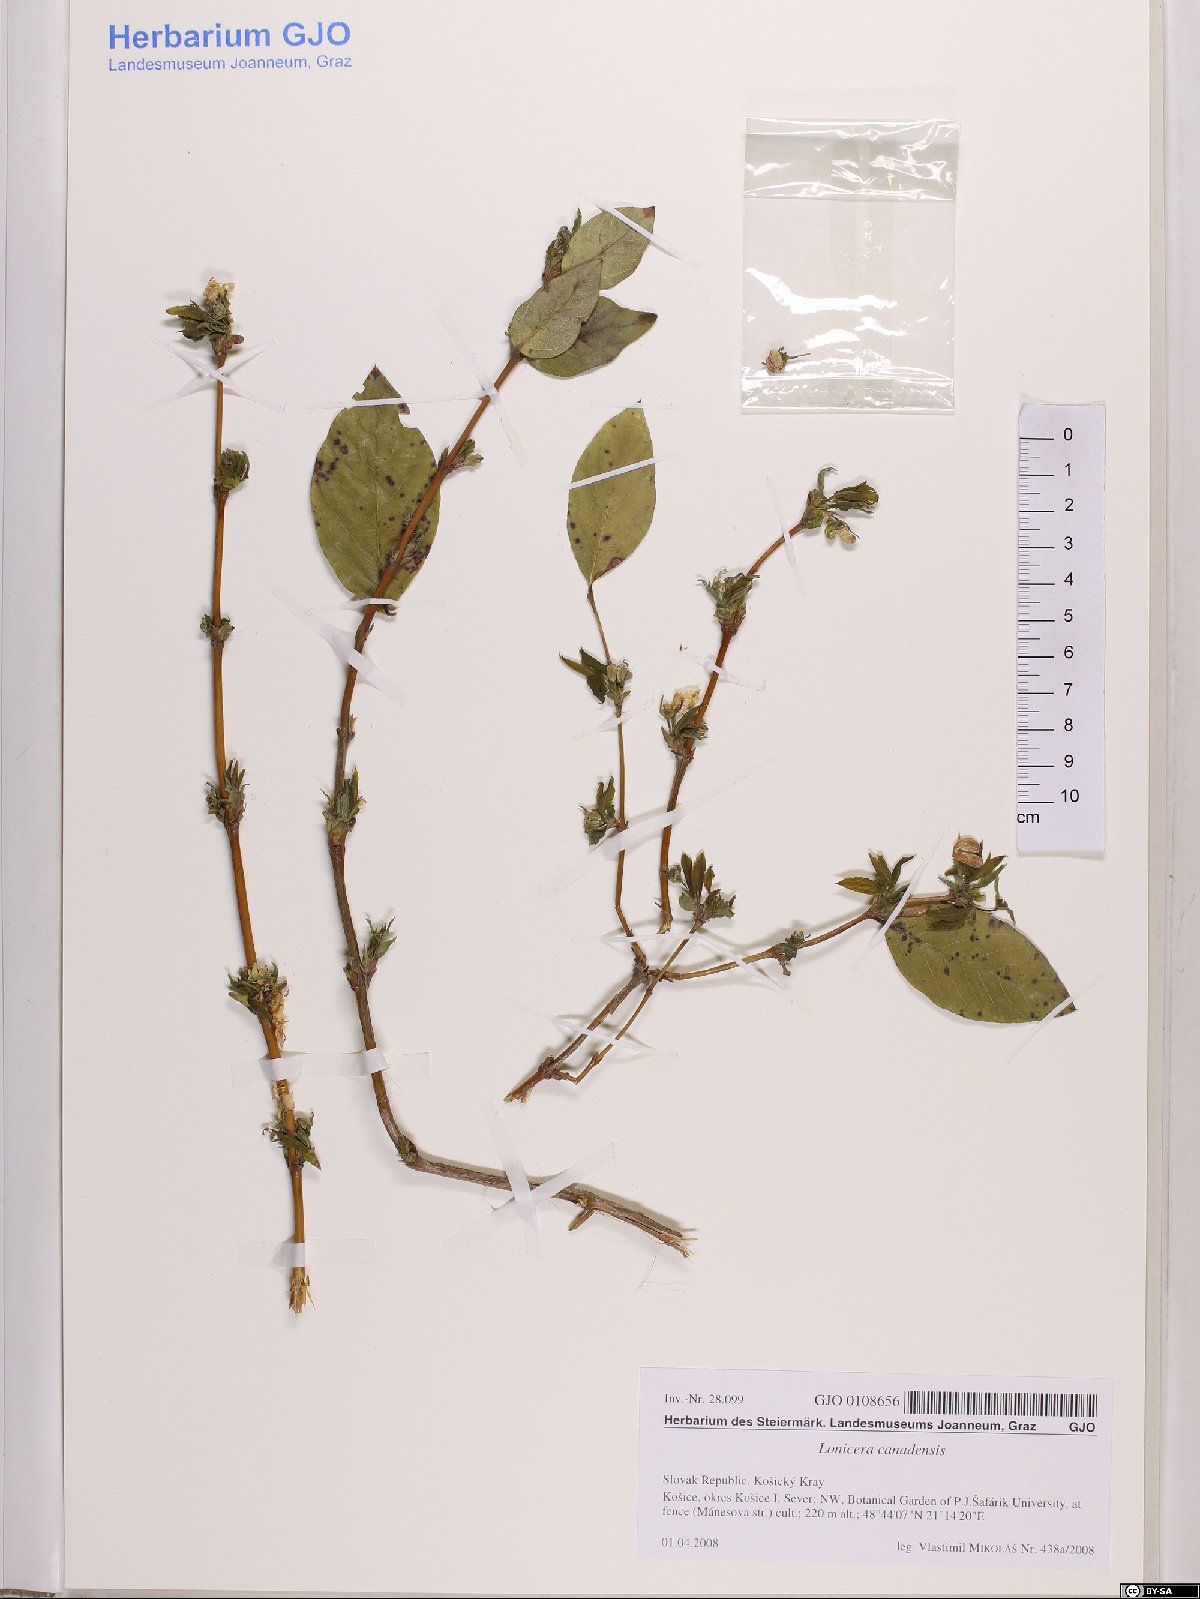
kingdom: Plantae
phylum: Tracheophyta
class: Magnoliopsida
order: Dipsacales
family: Caprifoliaceae
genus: Lonicera
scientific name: Lonicera canadensis
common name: American fly-honeysuckle
